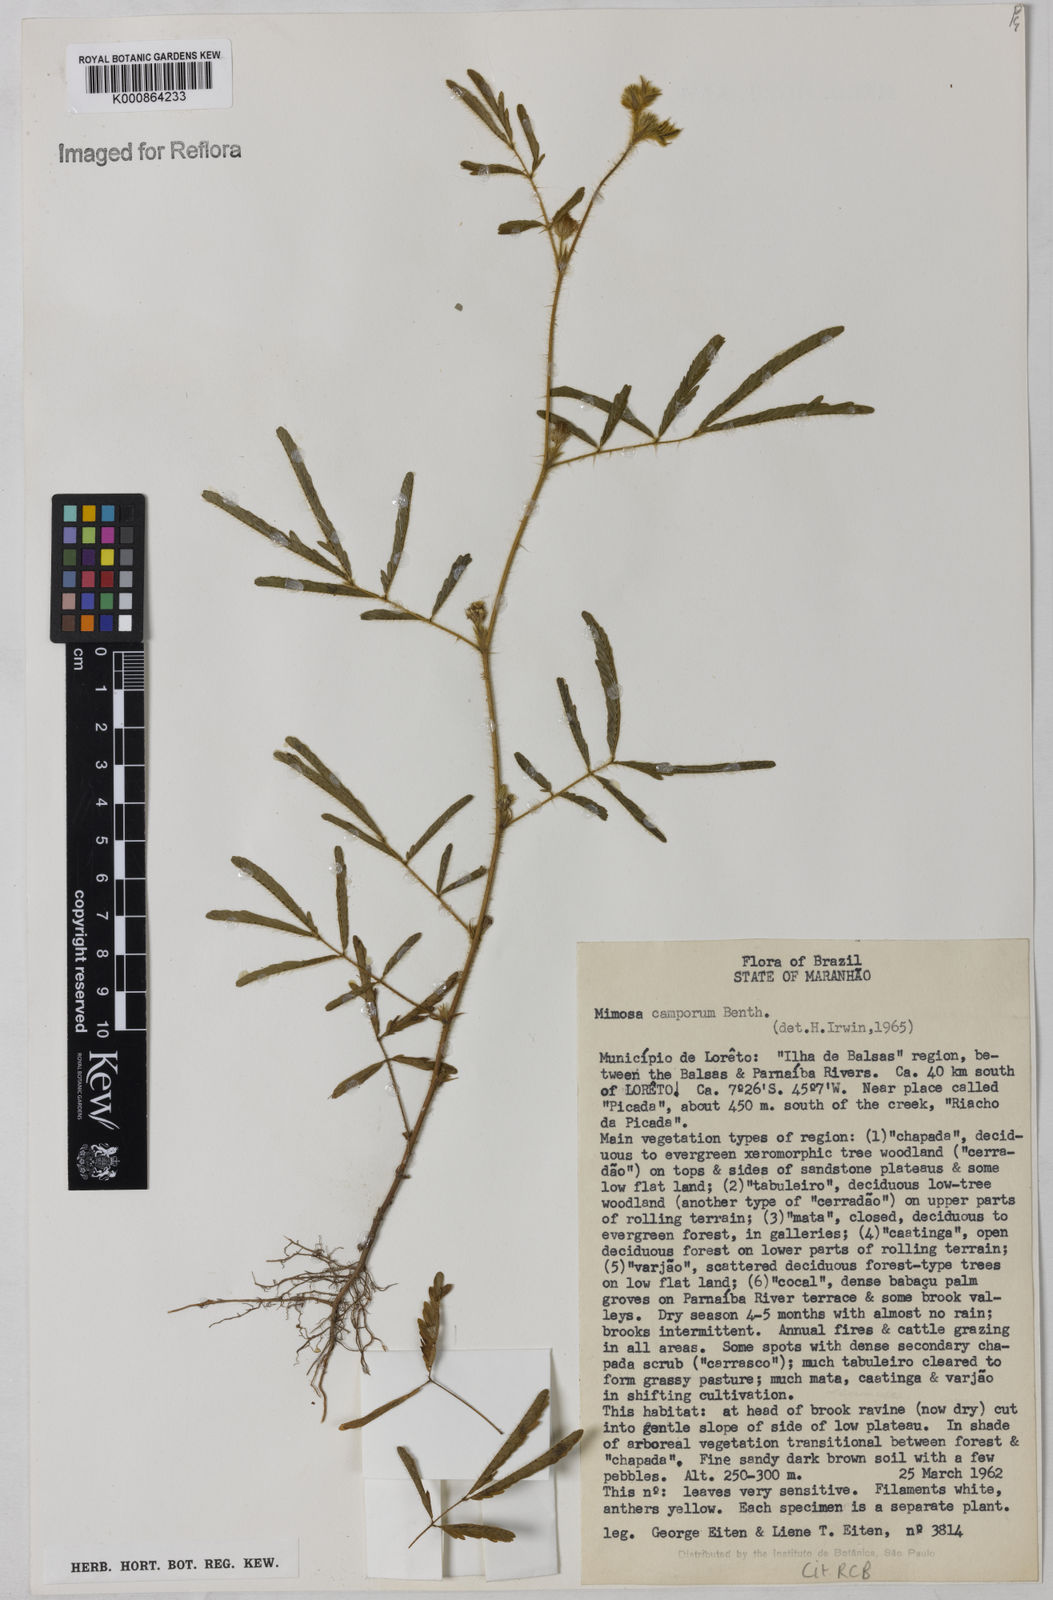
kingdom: Plantae
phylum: Tracheophyta
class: Magnoliopsida
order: Fabales
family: Fabaceae
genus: Mimosa
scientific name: Mimosa camporum
